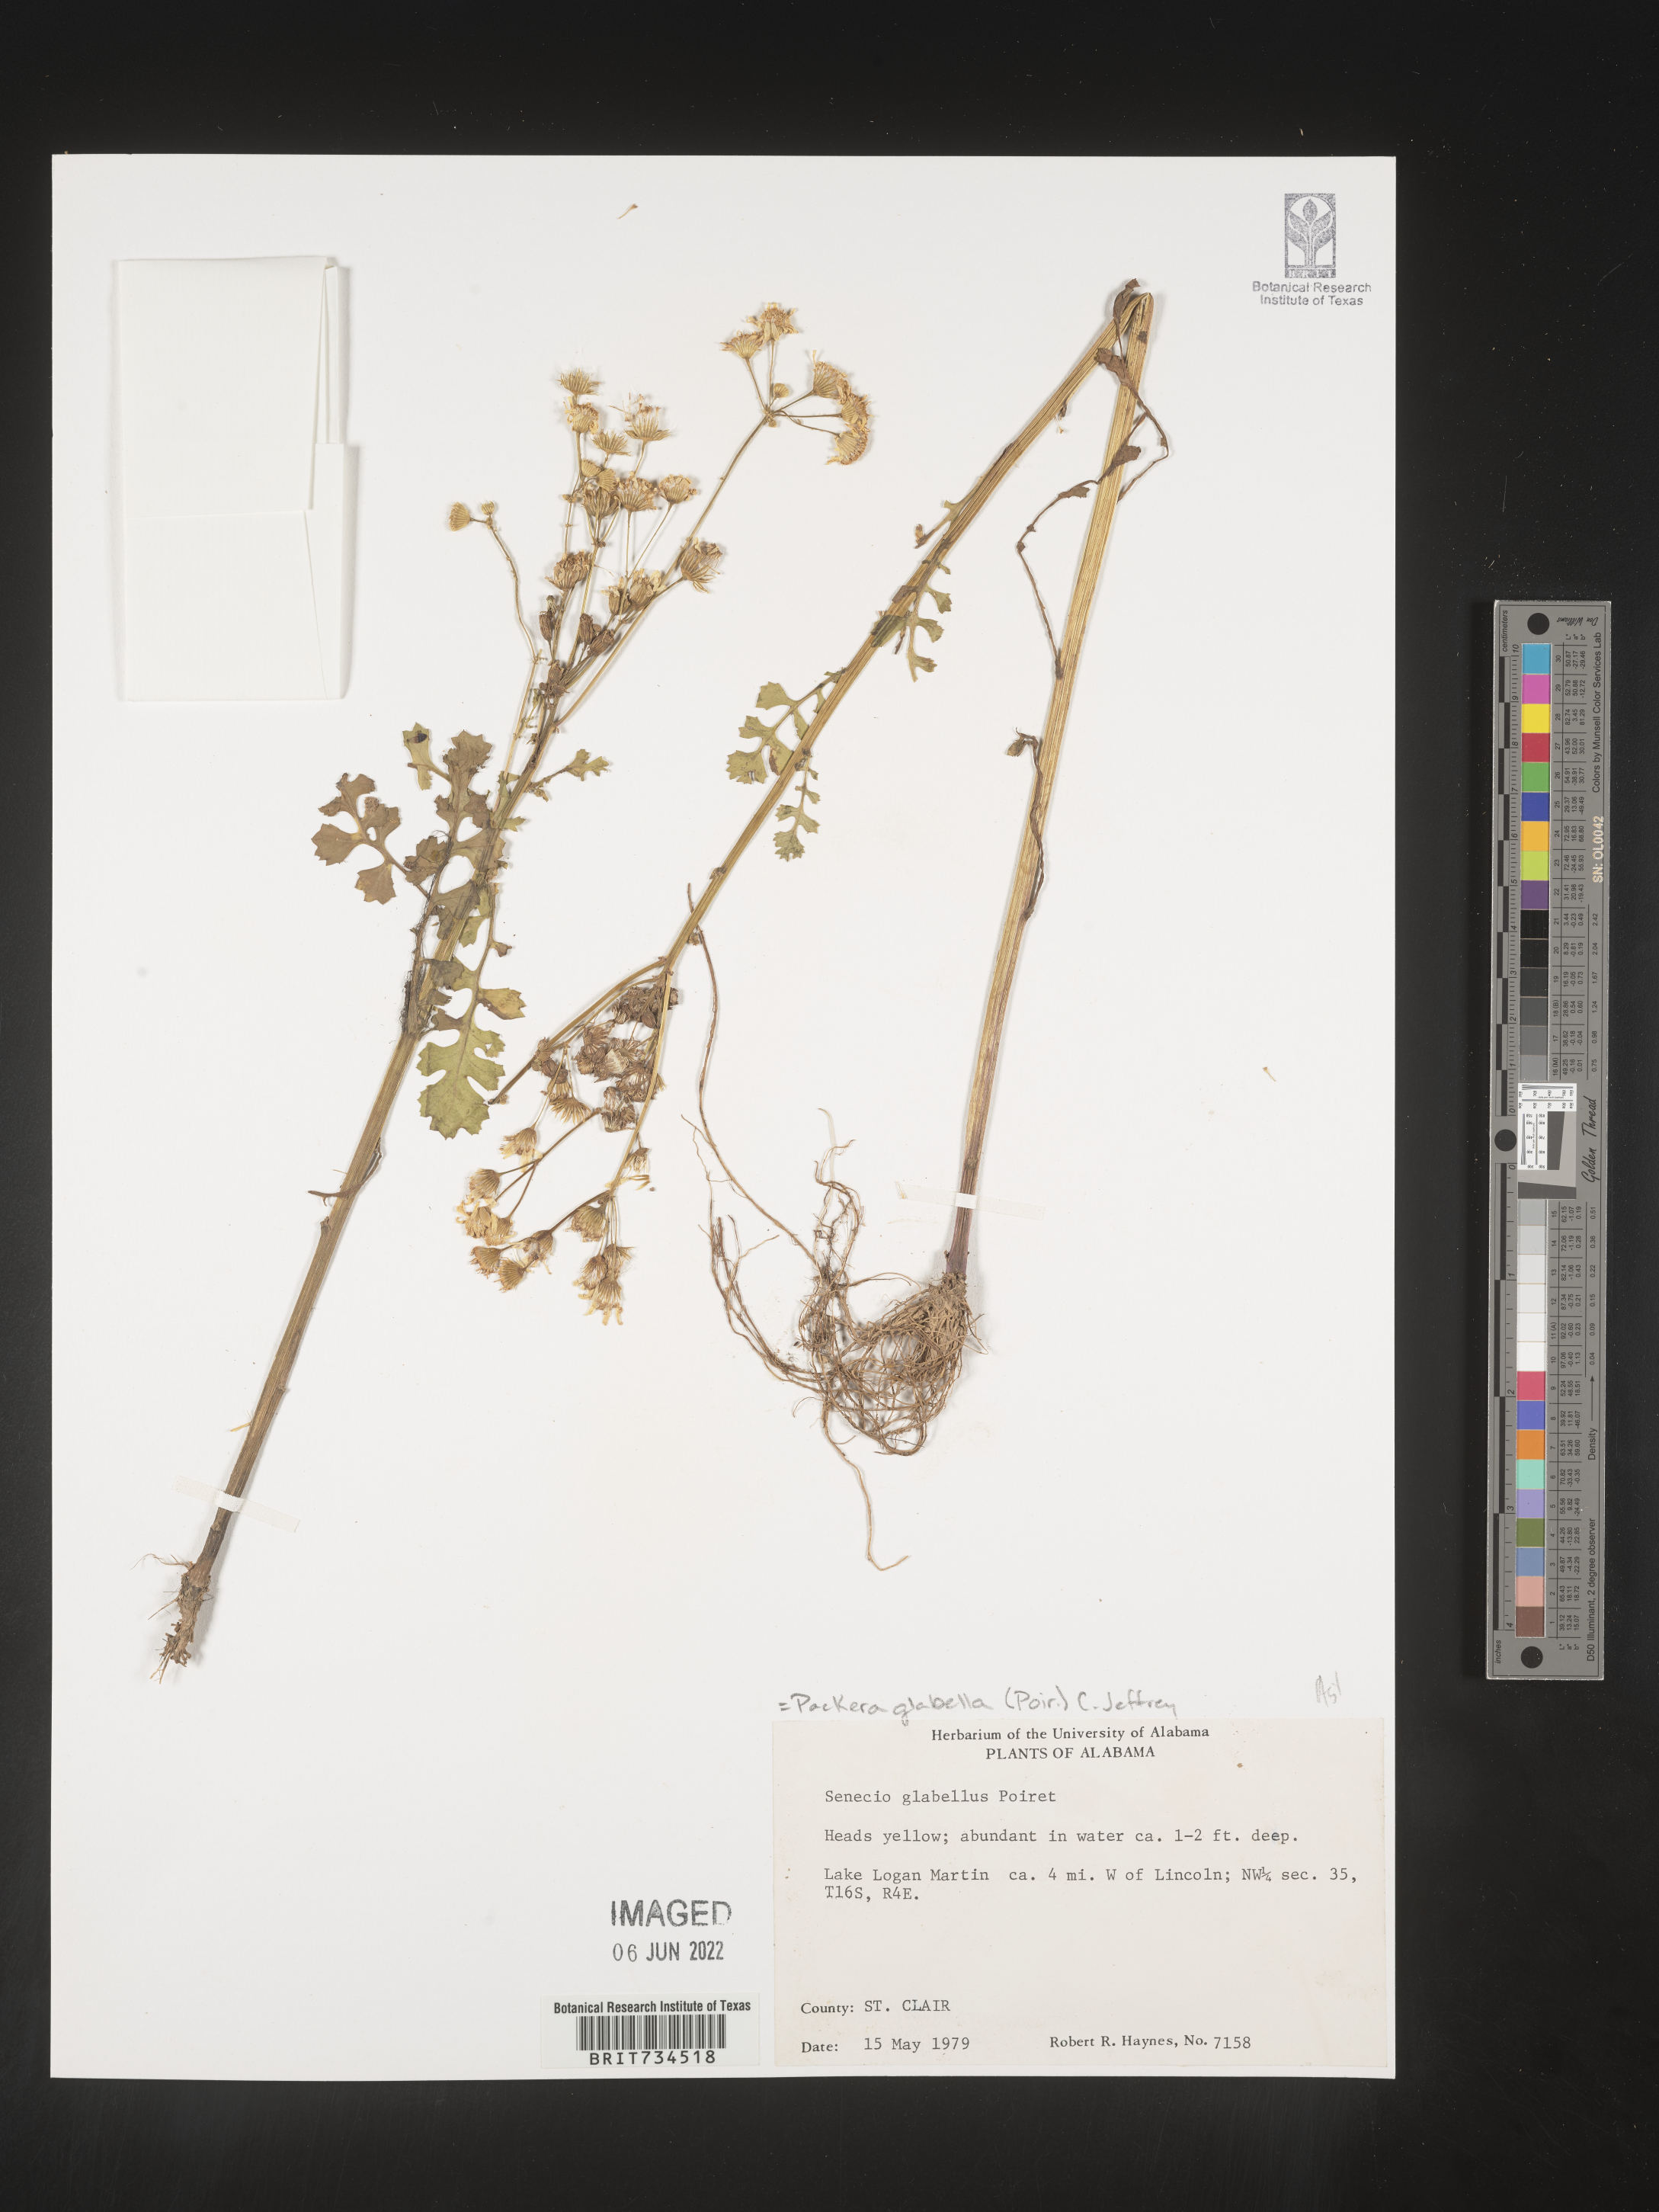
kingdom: Plantae
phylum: Tracheophyta
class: Magnoliopsida
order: Asterales
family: Asteraceae
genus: Packera
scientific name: Packera glabella
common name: Butterweed
